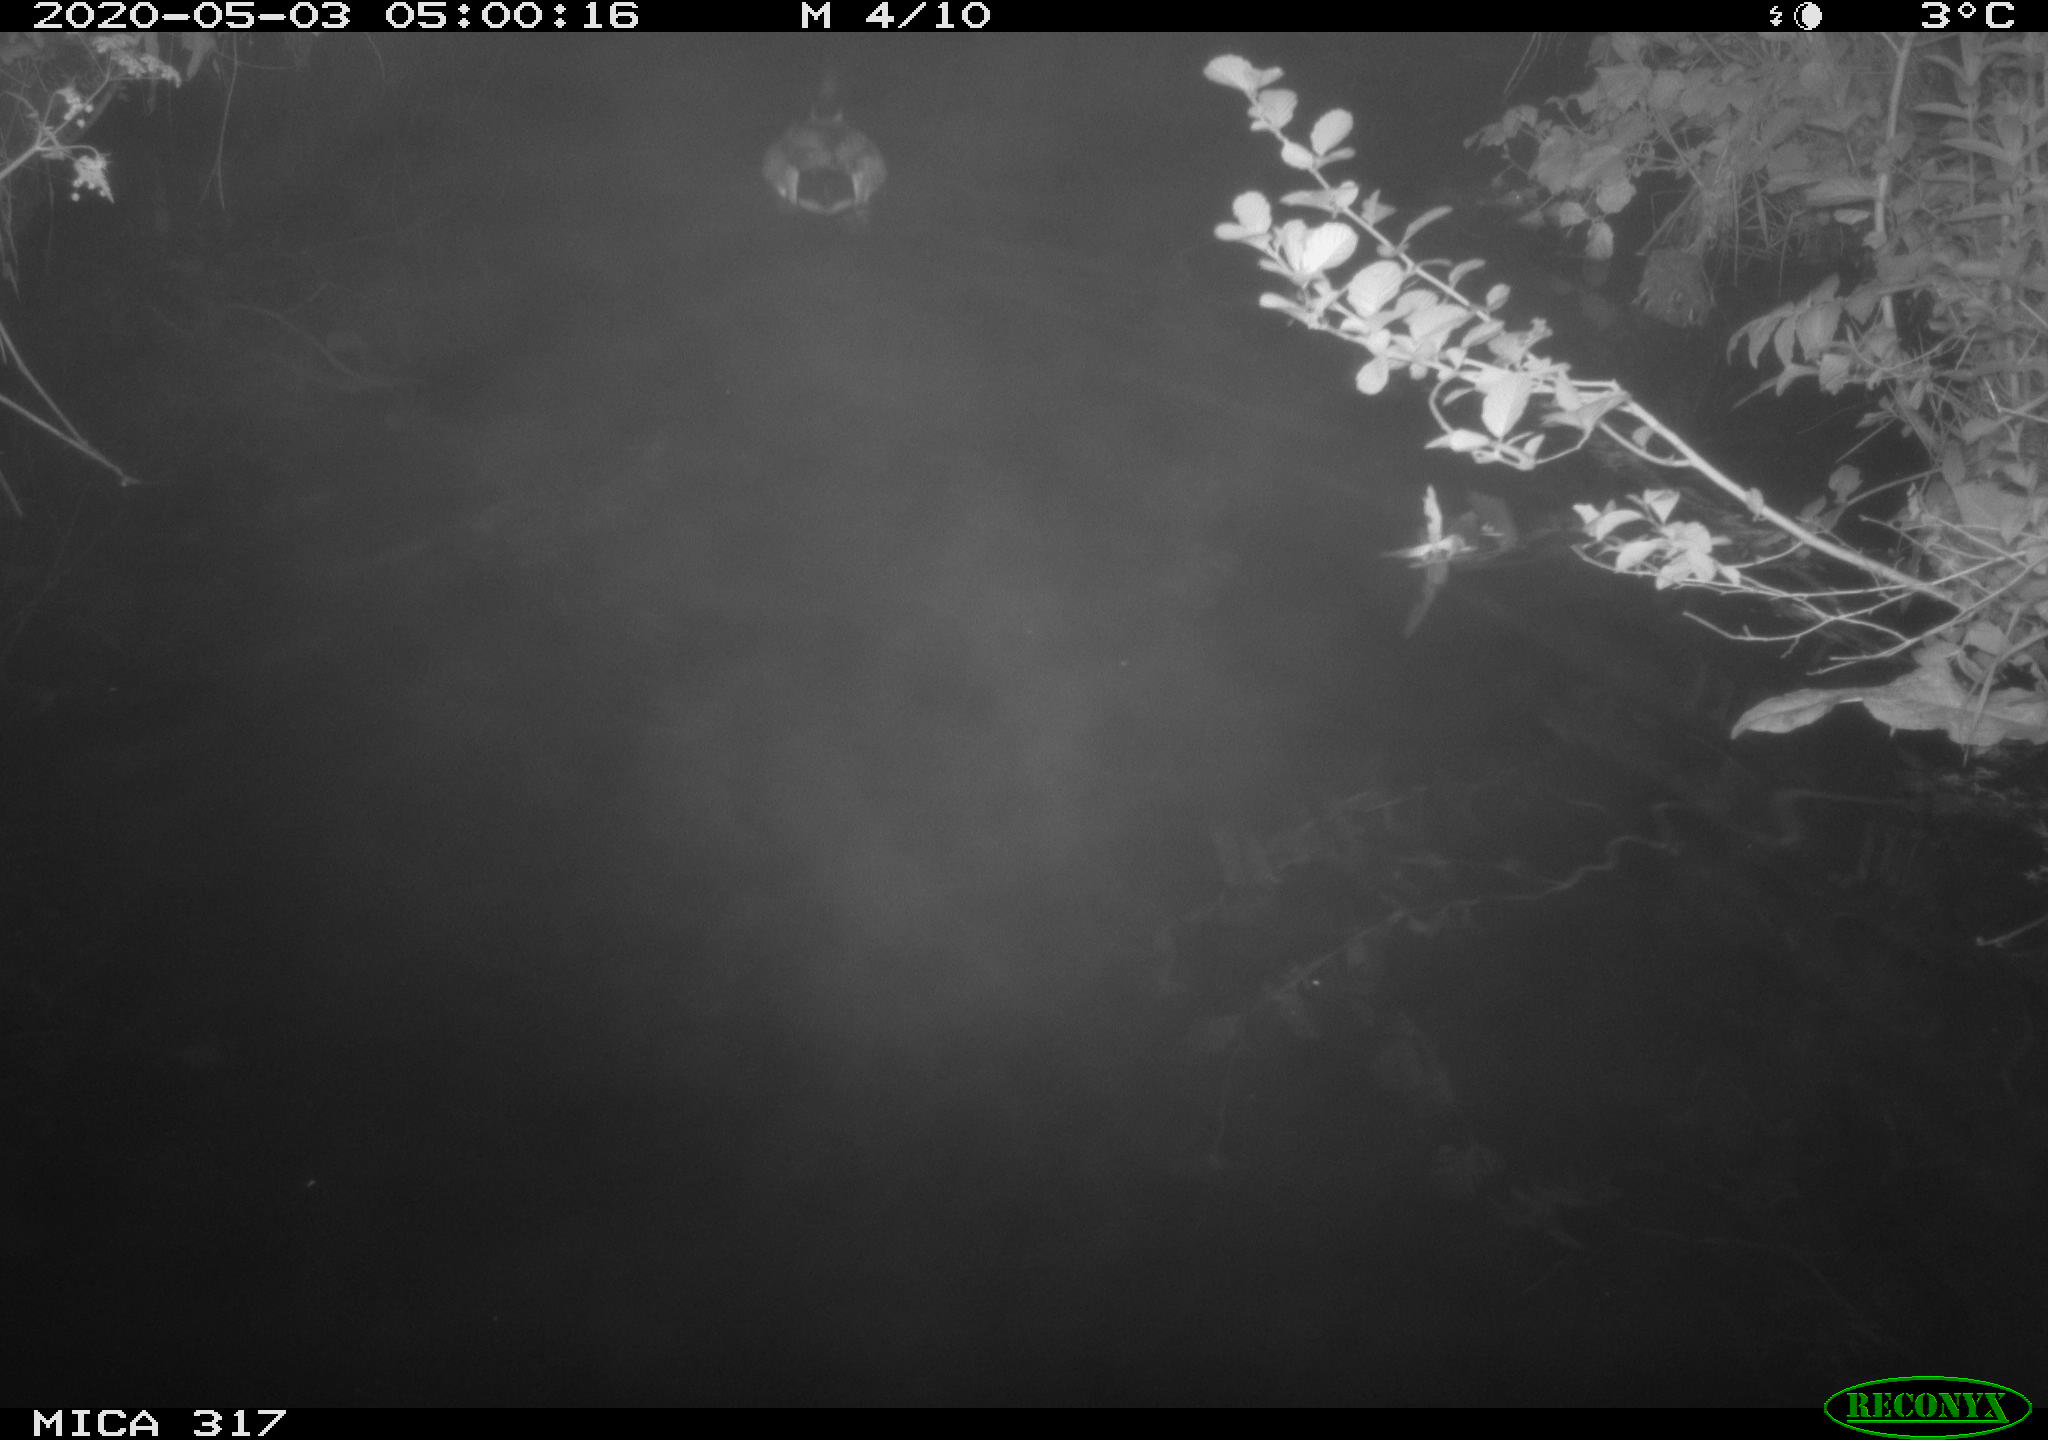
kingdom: Animalia
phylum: Chordata
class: Aves
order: Anseriformes
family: Anatidae
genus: Anas
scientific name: Anas platyrhynchos
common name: Mallard
